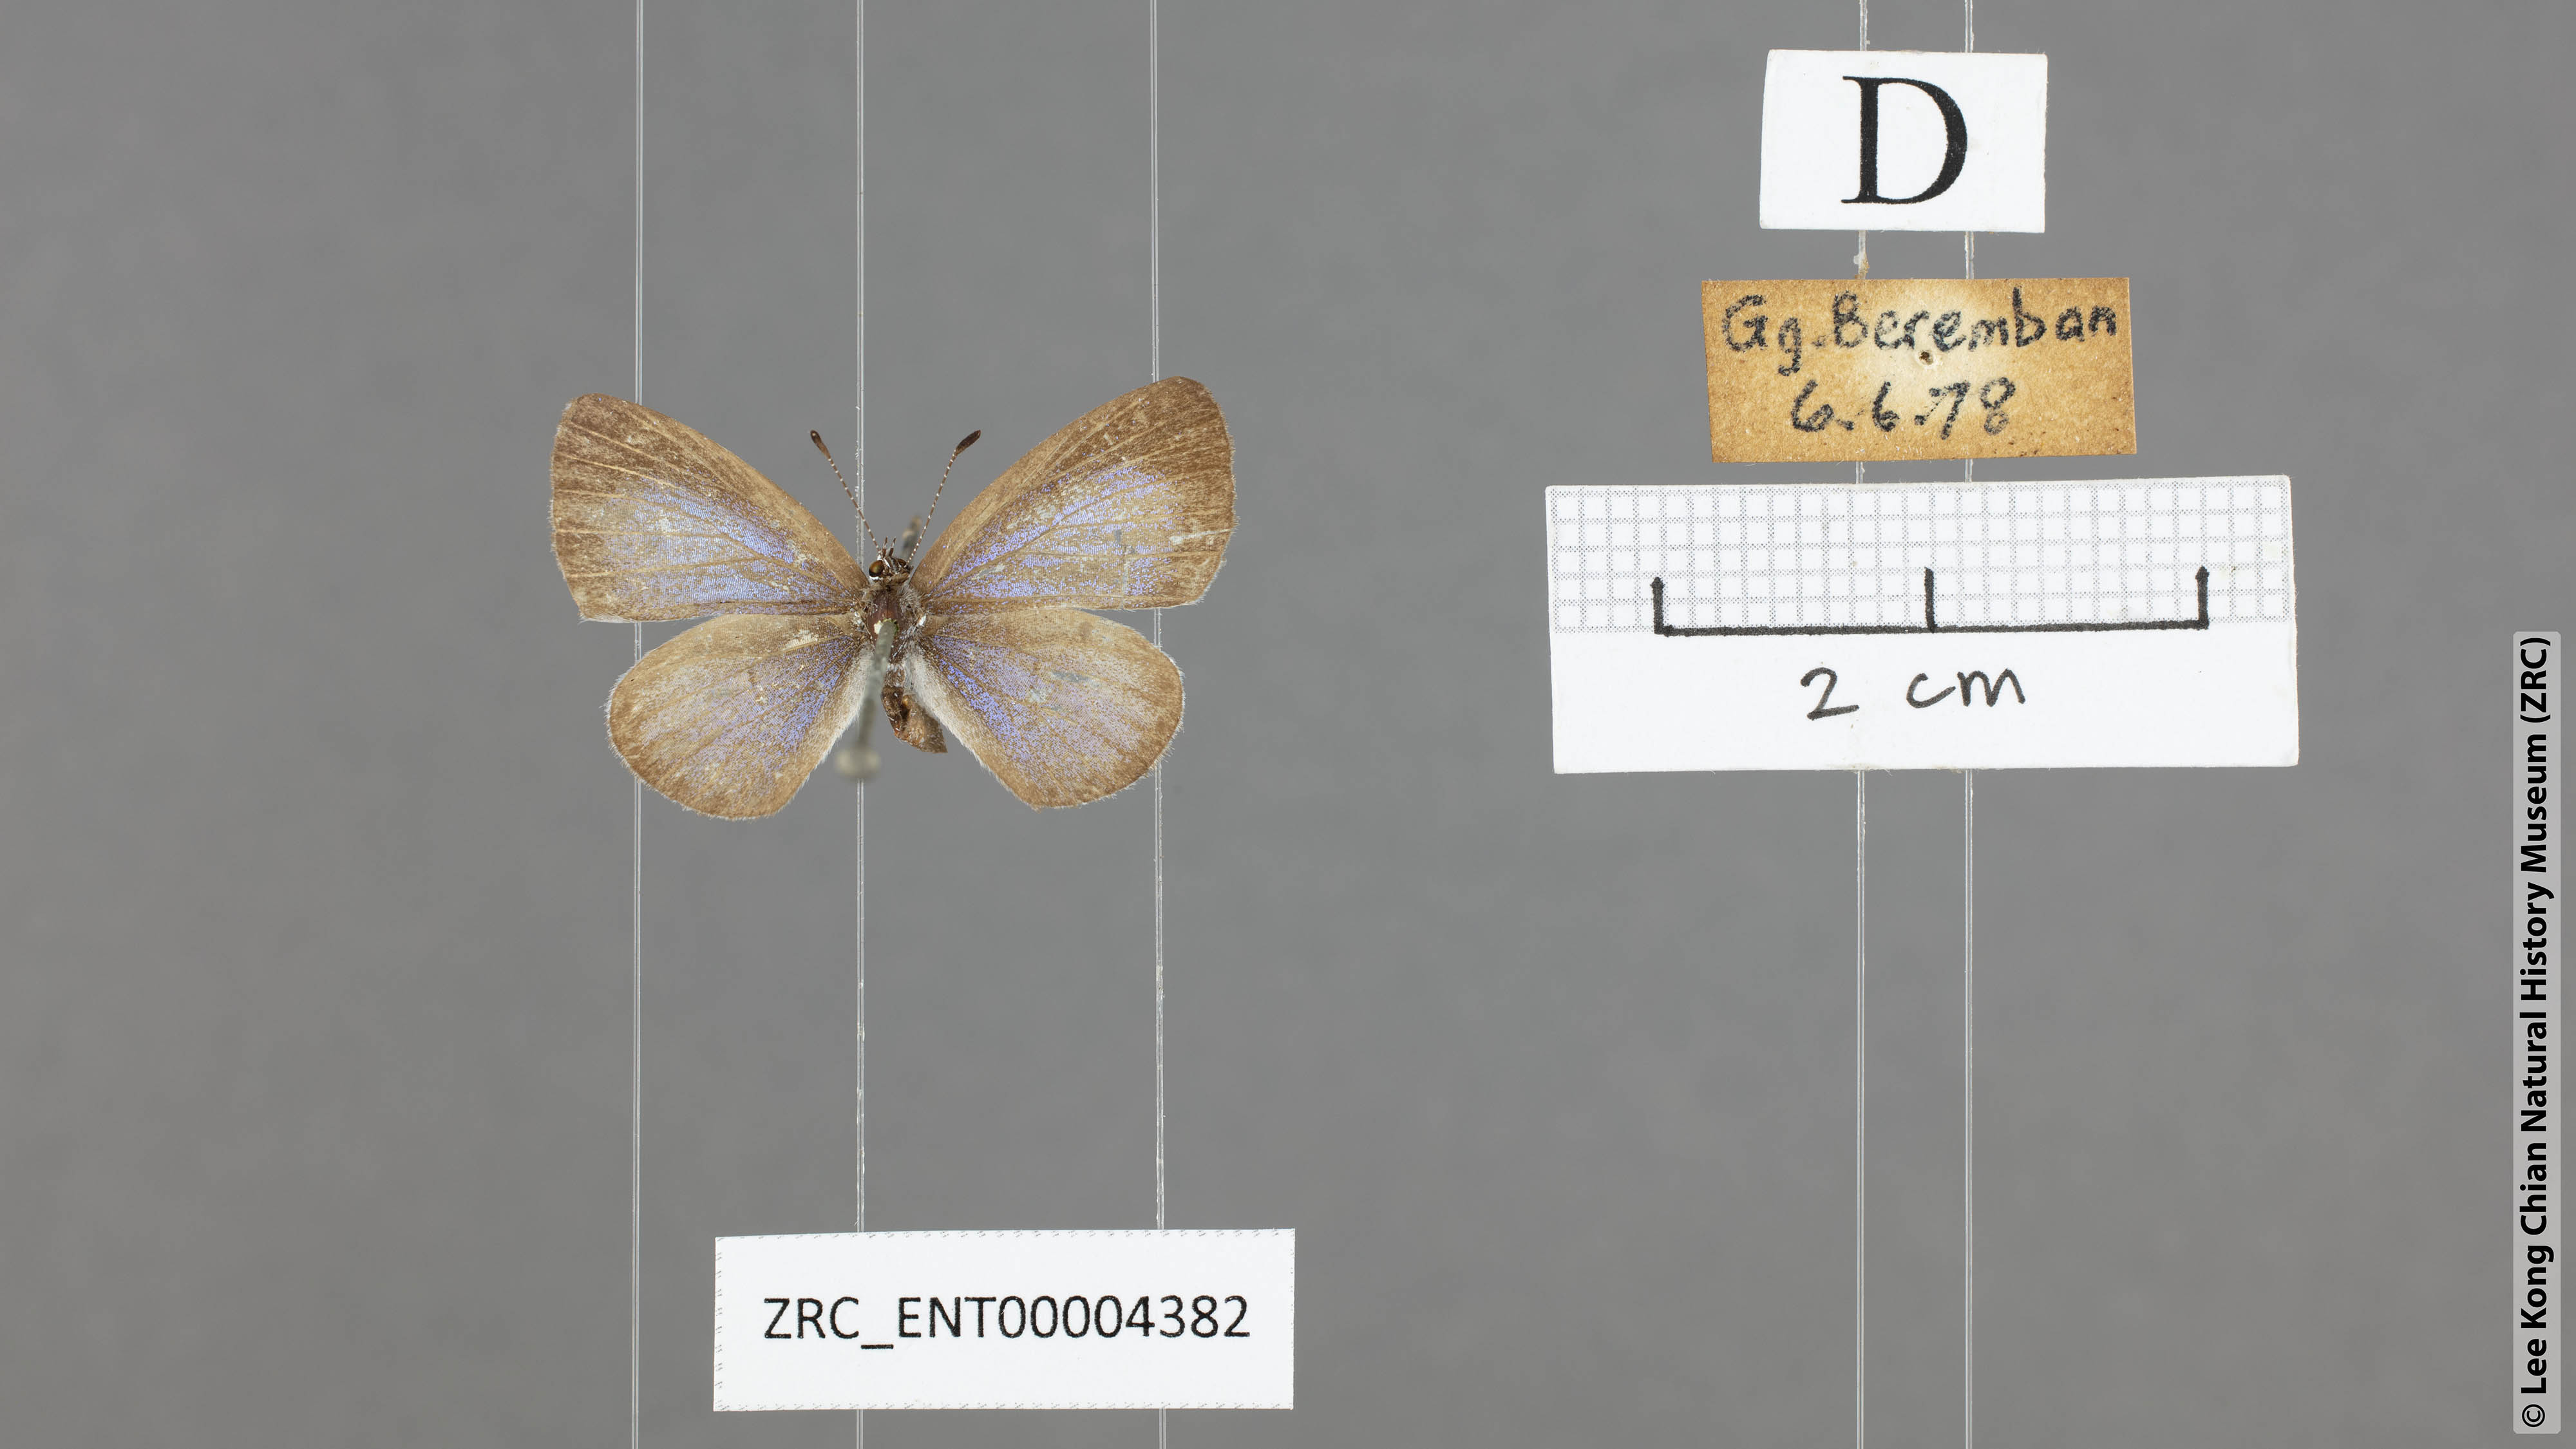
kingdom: Animalia
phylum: Arthropoda
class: Insecta
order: Lepidoptera
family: Lycaenidae
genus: Monodontides
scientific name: Monodontides
